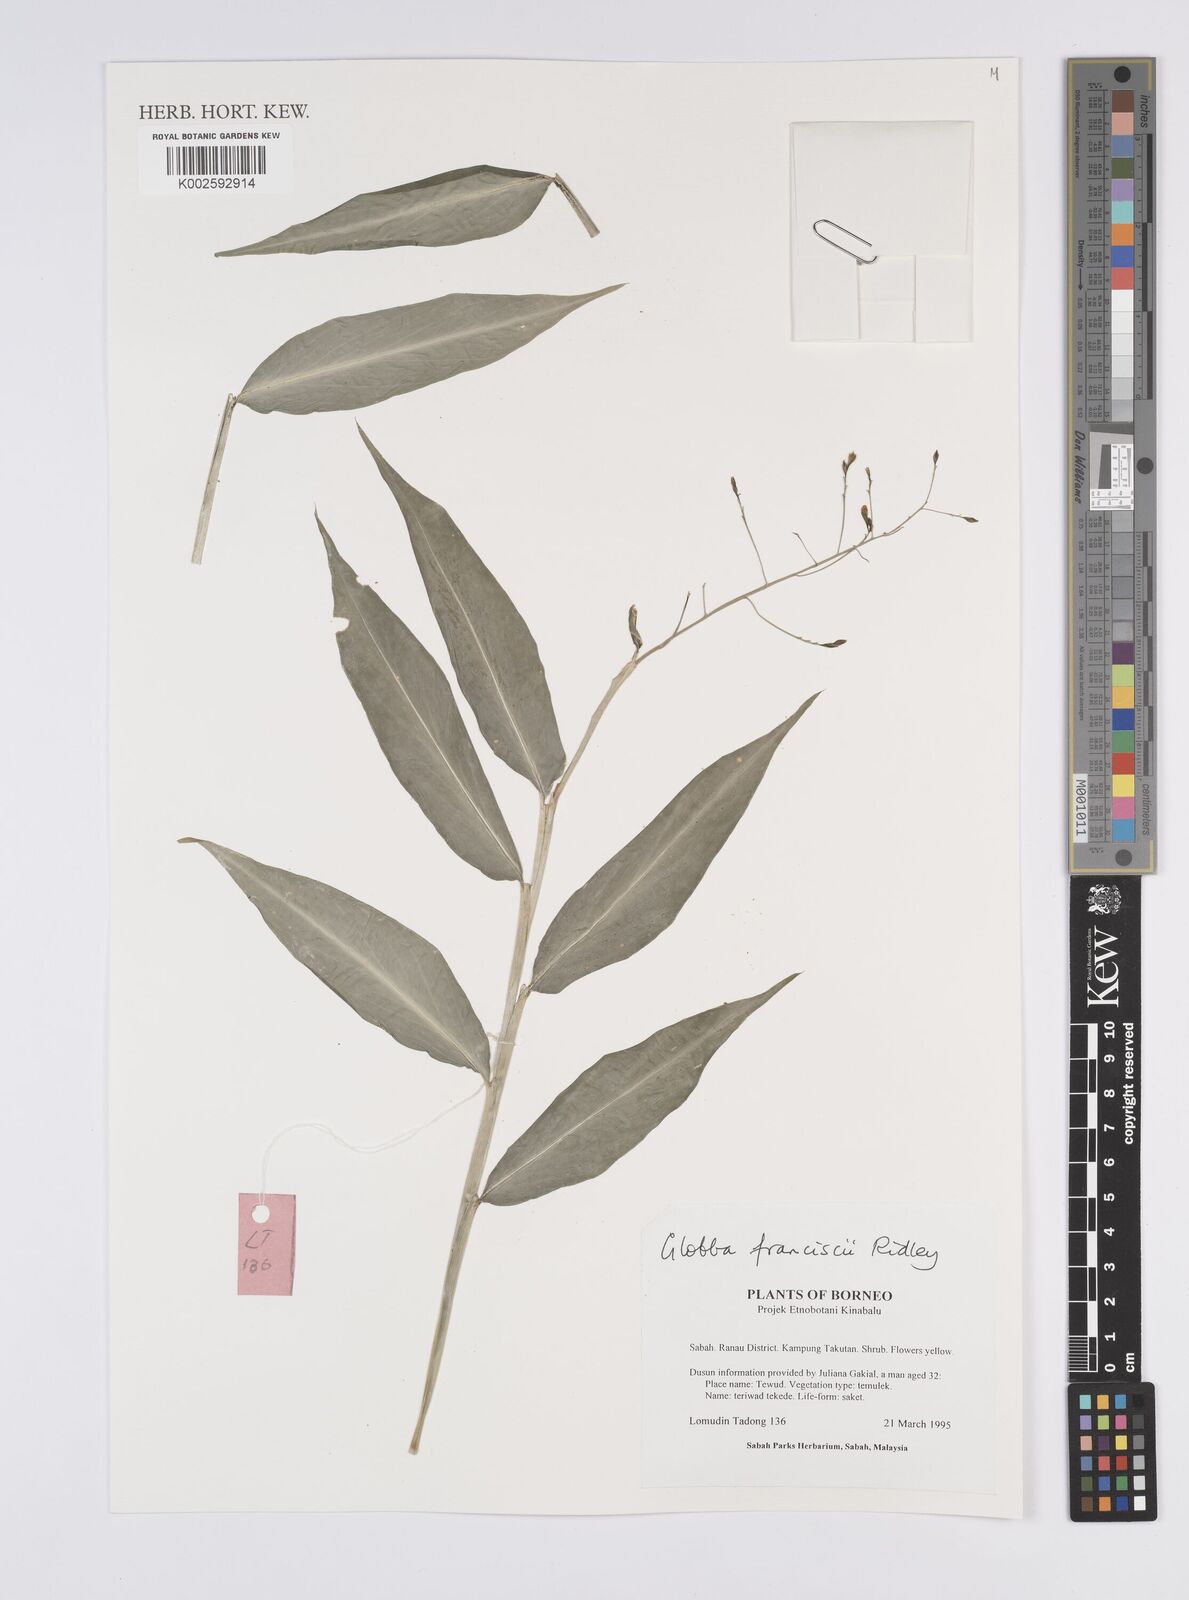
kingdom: Plantae
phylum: Tracheophyta
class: Liliopsida
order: Zingiberales
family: Zingiberaceae
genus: Globba
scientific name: Globba francisci
